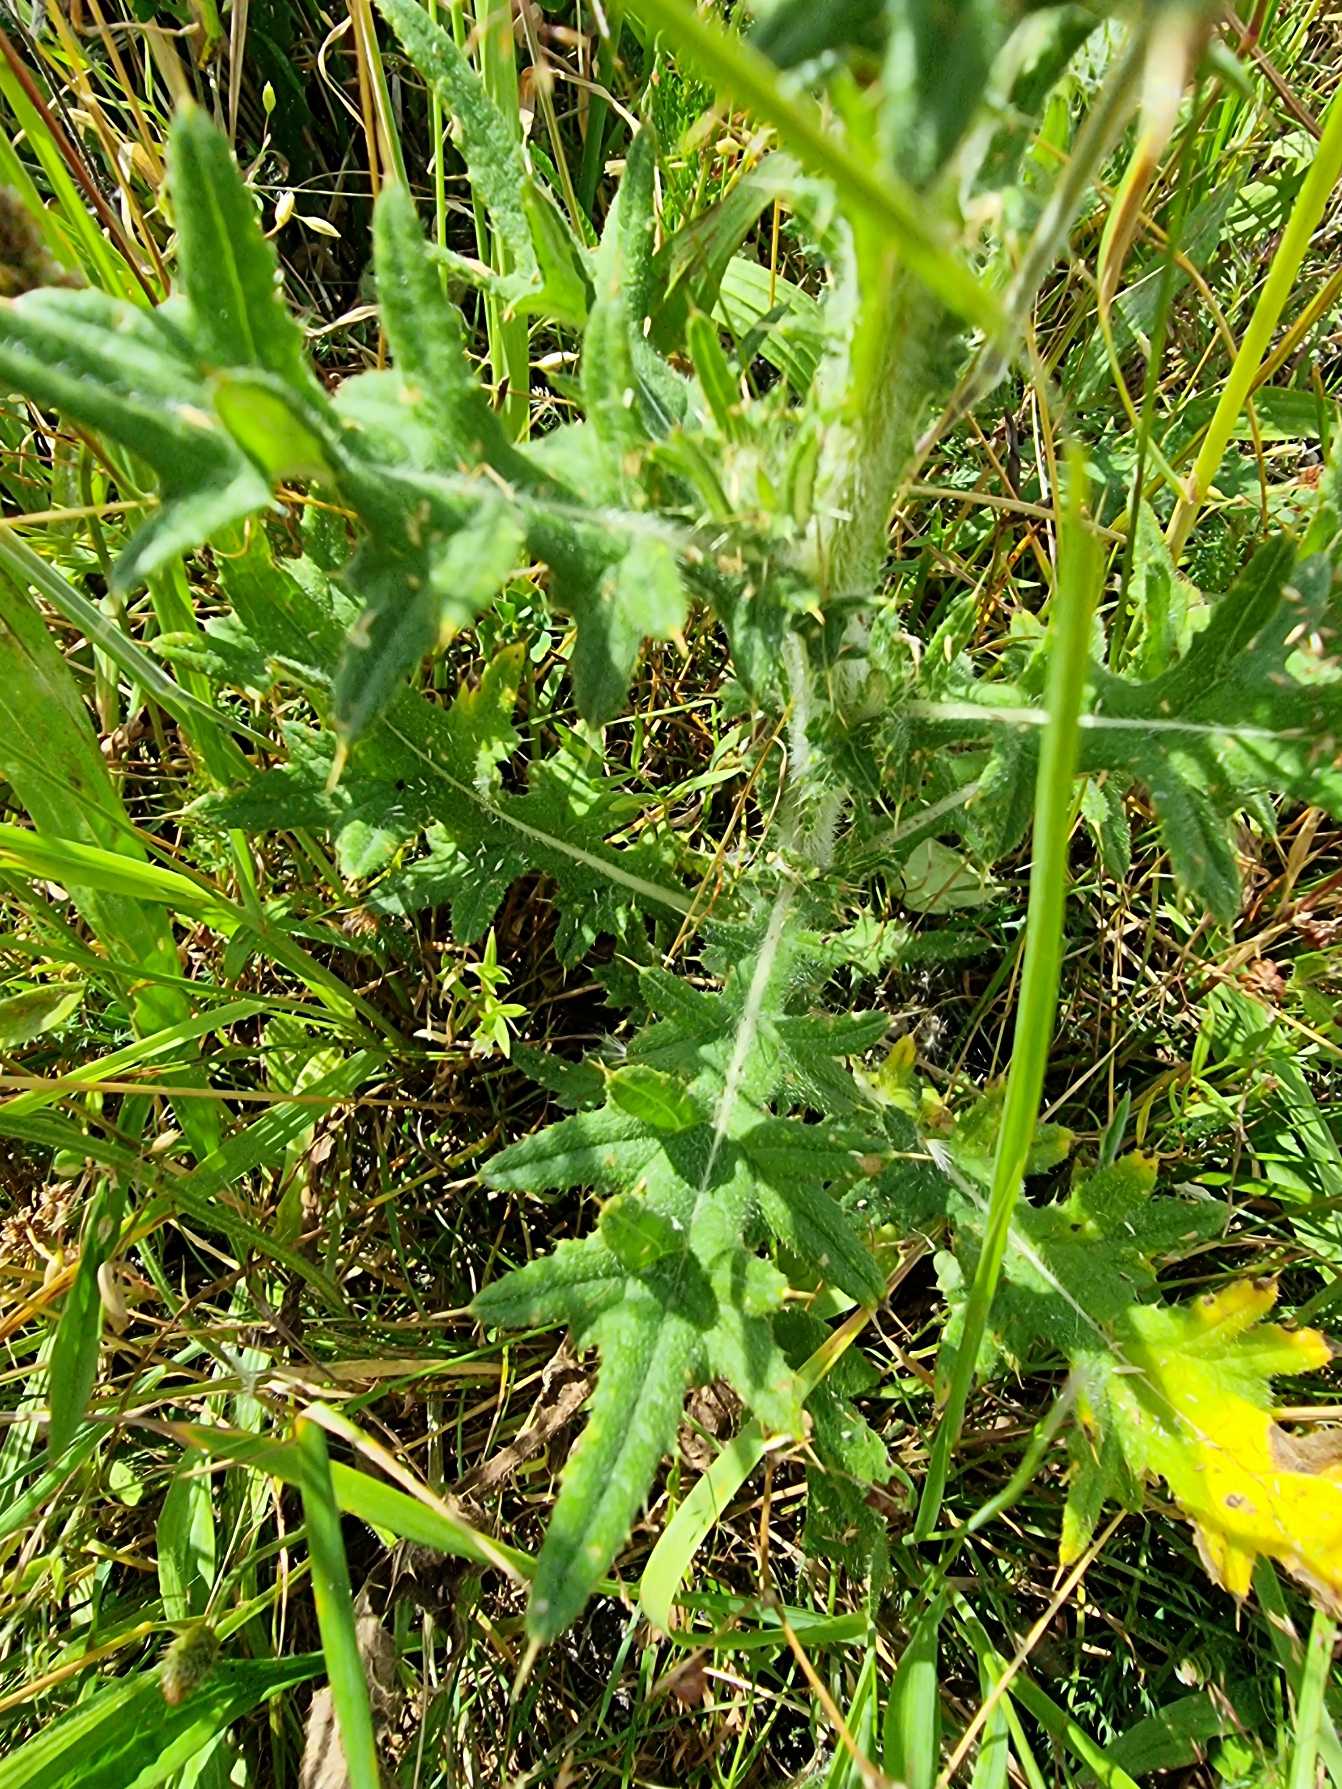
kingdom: Plantae
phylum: Tracheophyta
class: Magnoliopsida
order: Asterales
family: Asteraceae
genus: Cirsium
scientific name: Cirsium vulgare
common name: Horse-tidsel
